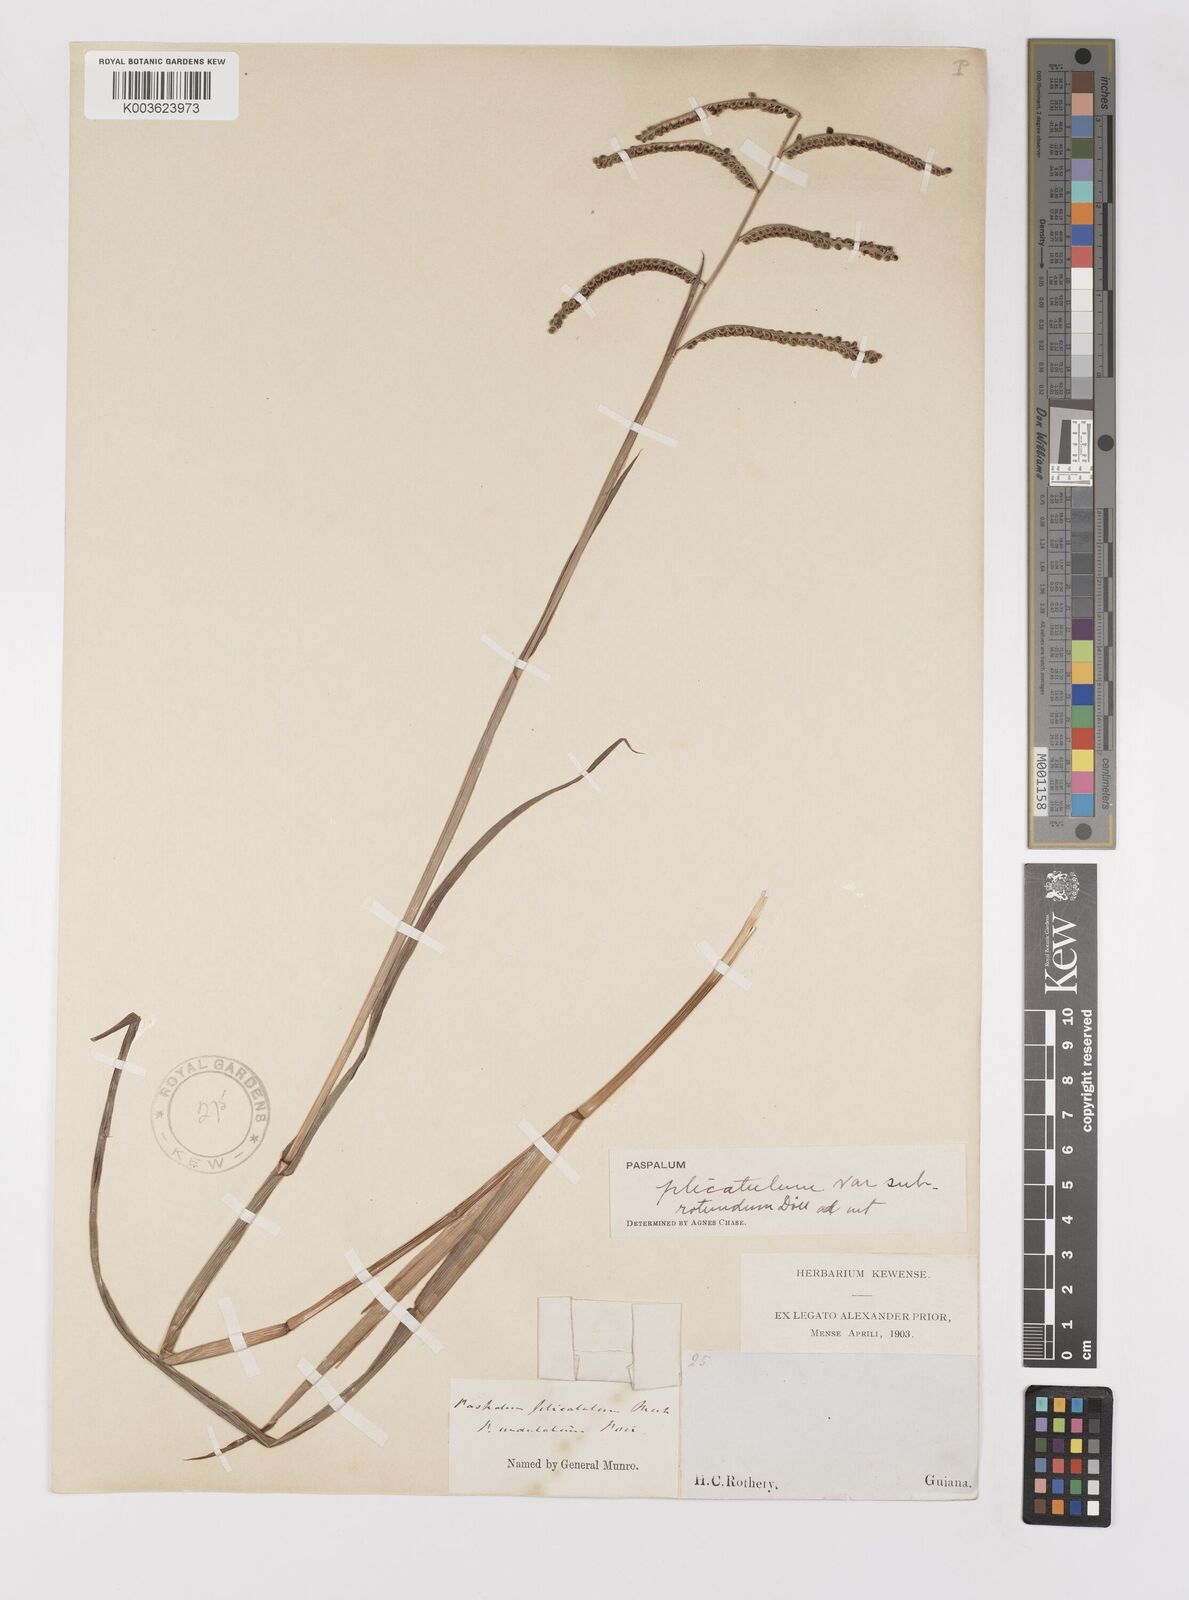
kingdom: Plantae
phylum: Tracheophyta
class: Liliopsida
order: Poales
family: Poaceae
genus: Paspalum
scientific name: Paspalum convexum
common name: Latin american crowngrass
